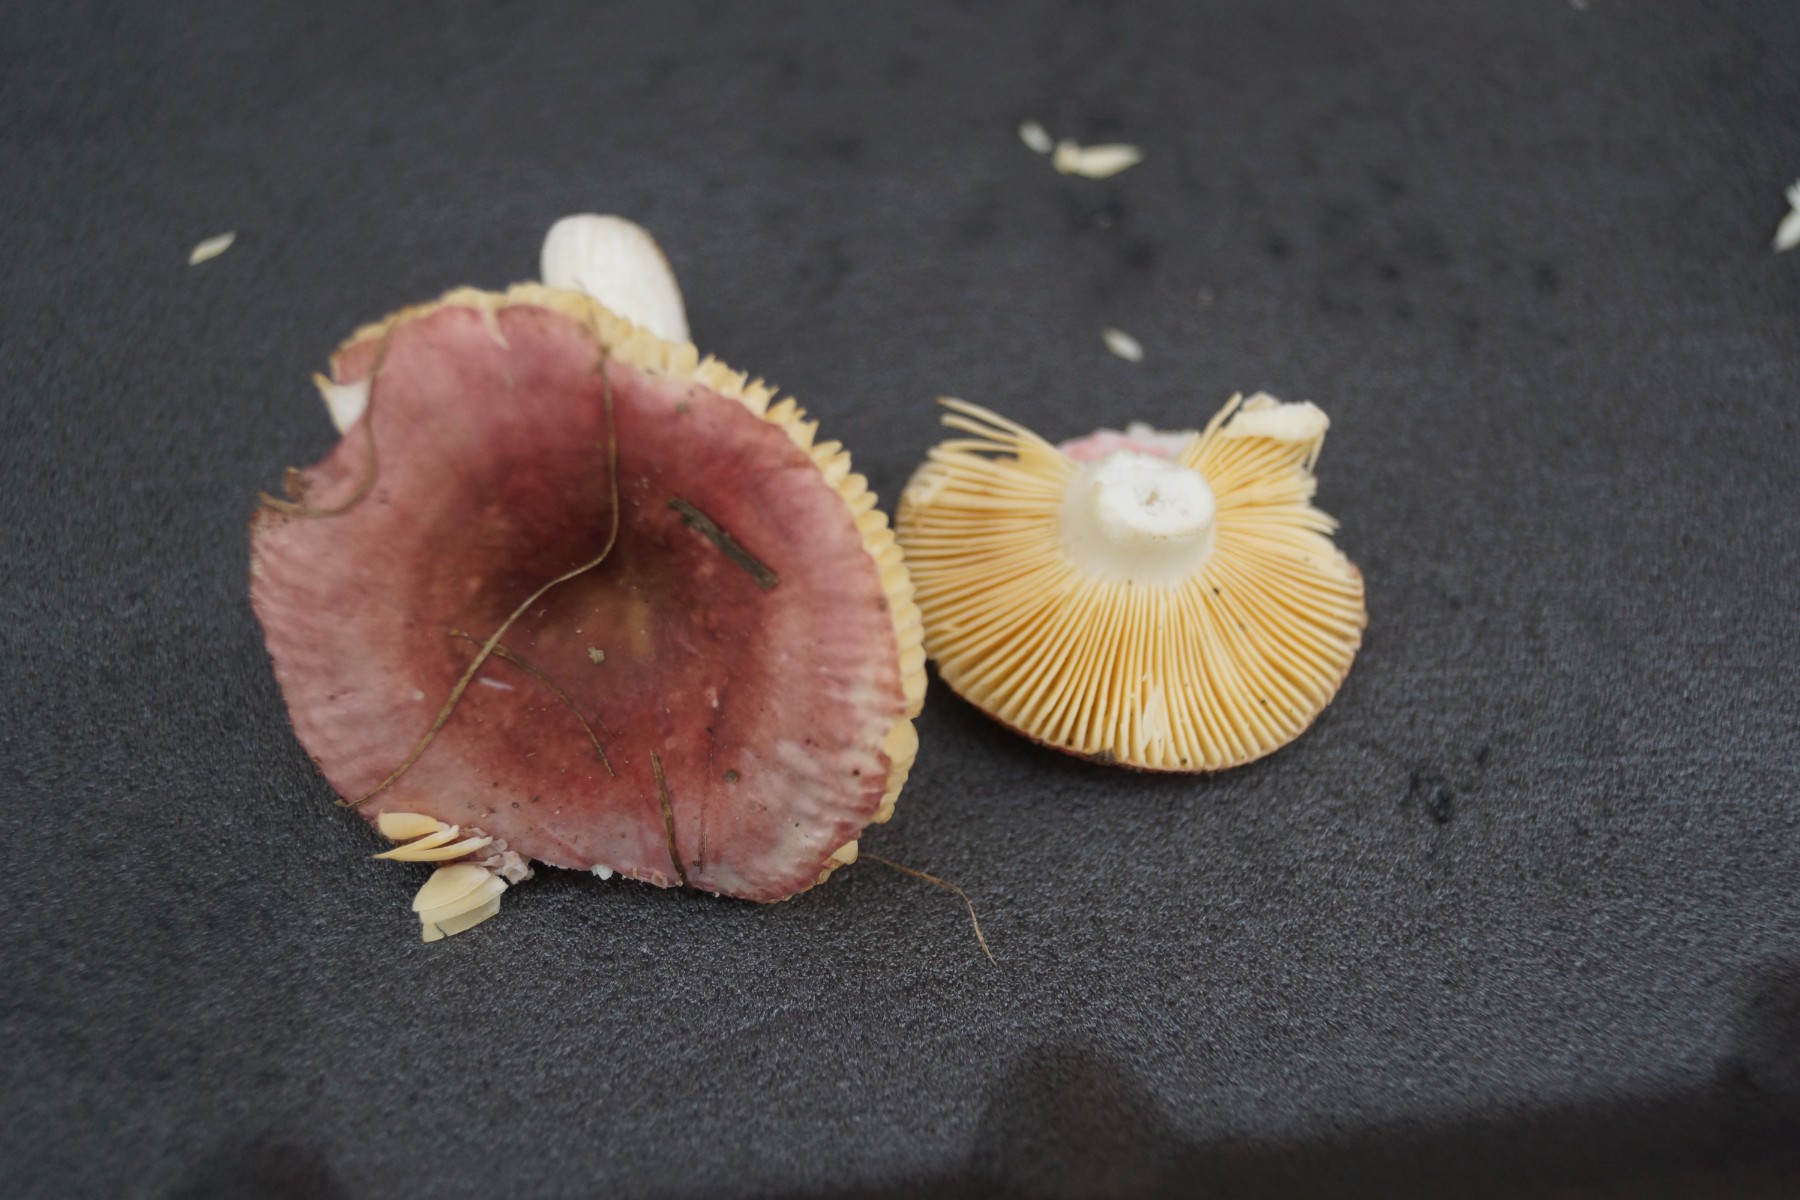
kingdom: Fungi
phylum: Basidiomycota
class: Agaricomycetes
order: Russulales
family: Russulaceae
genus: Russula
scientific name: Russula cessans
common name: fyrre-skørhat
